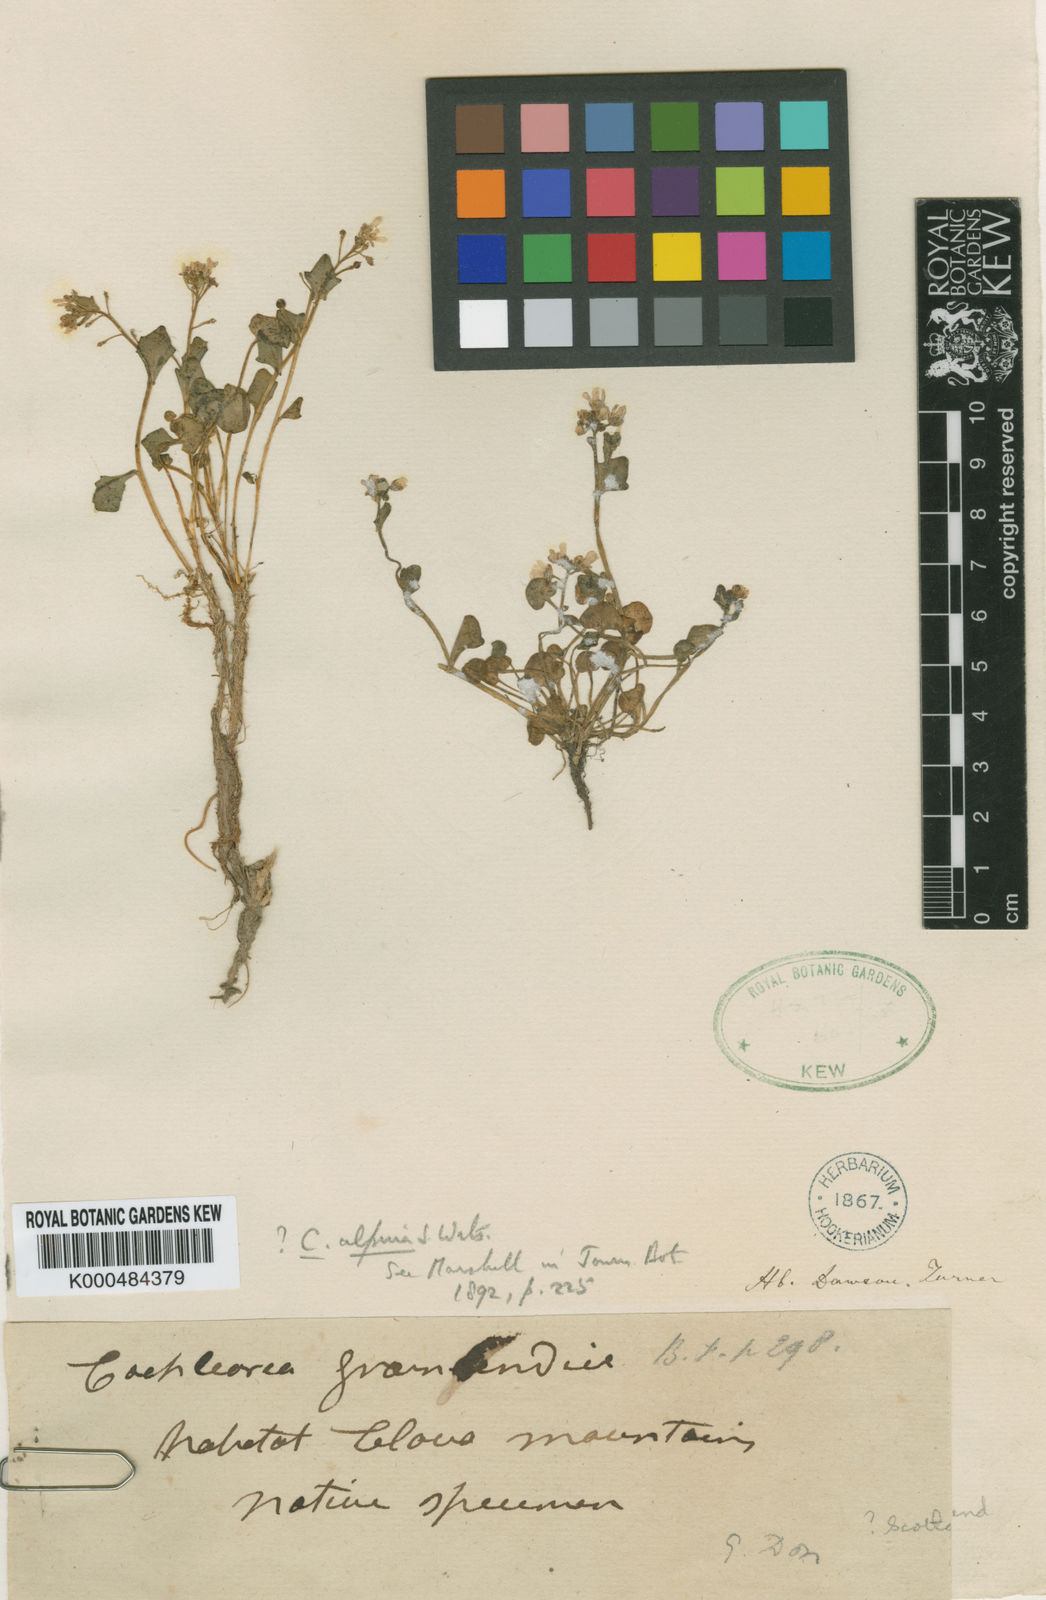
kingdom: Plantae
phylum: Tracheophyta
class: Magnoliopsida
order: Brassicales
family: Brassicaceae
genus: Cochlearia
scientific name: Cochlearia pyrenaica
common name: Upland scurvy-grass
